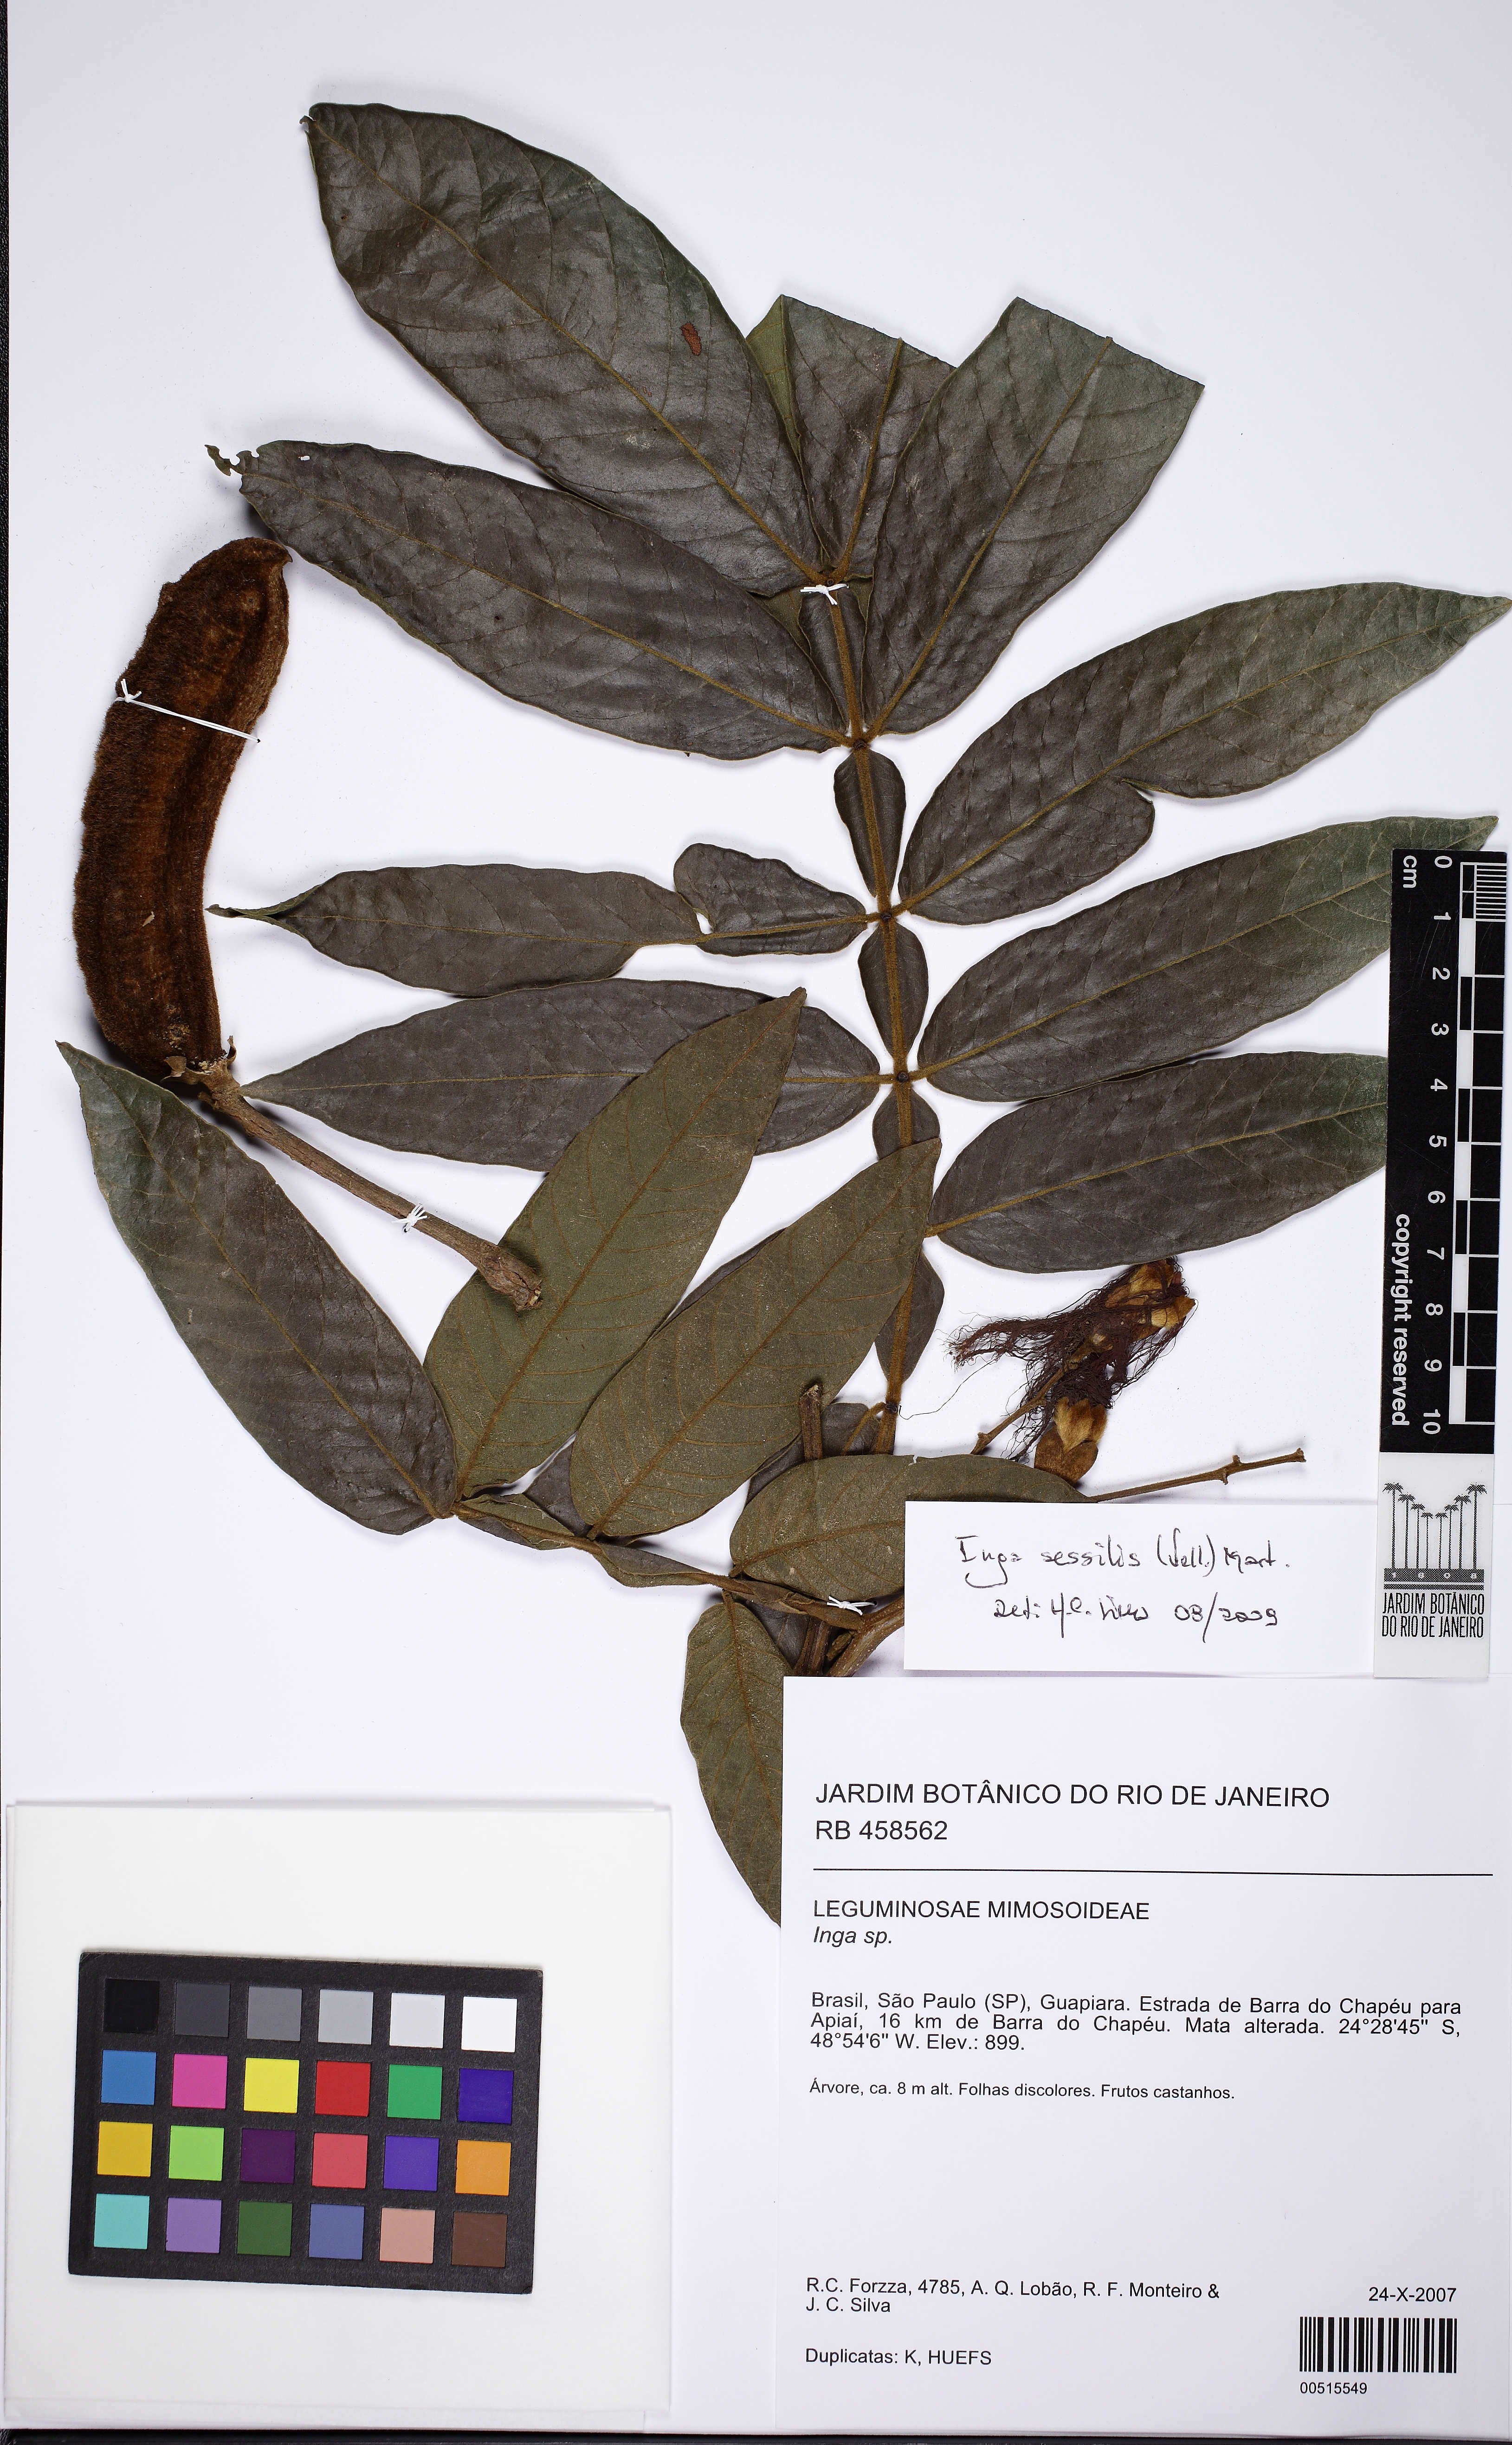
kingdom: Plantae
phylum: Tracheophyta
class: Magnoliopsida
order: Fabales
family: Fabaceae
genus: Inga
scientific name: Inga sessilis
